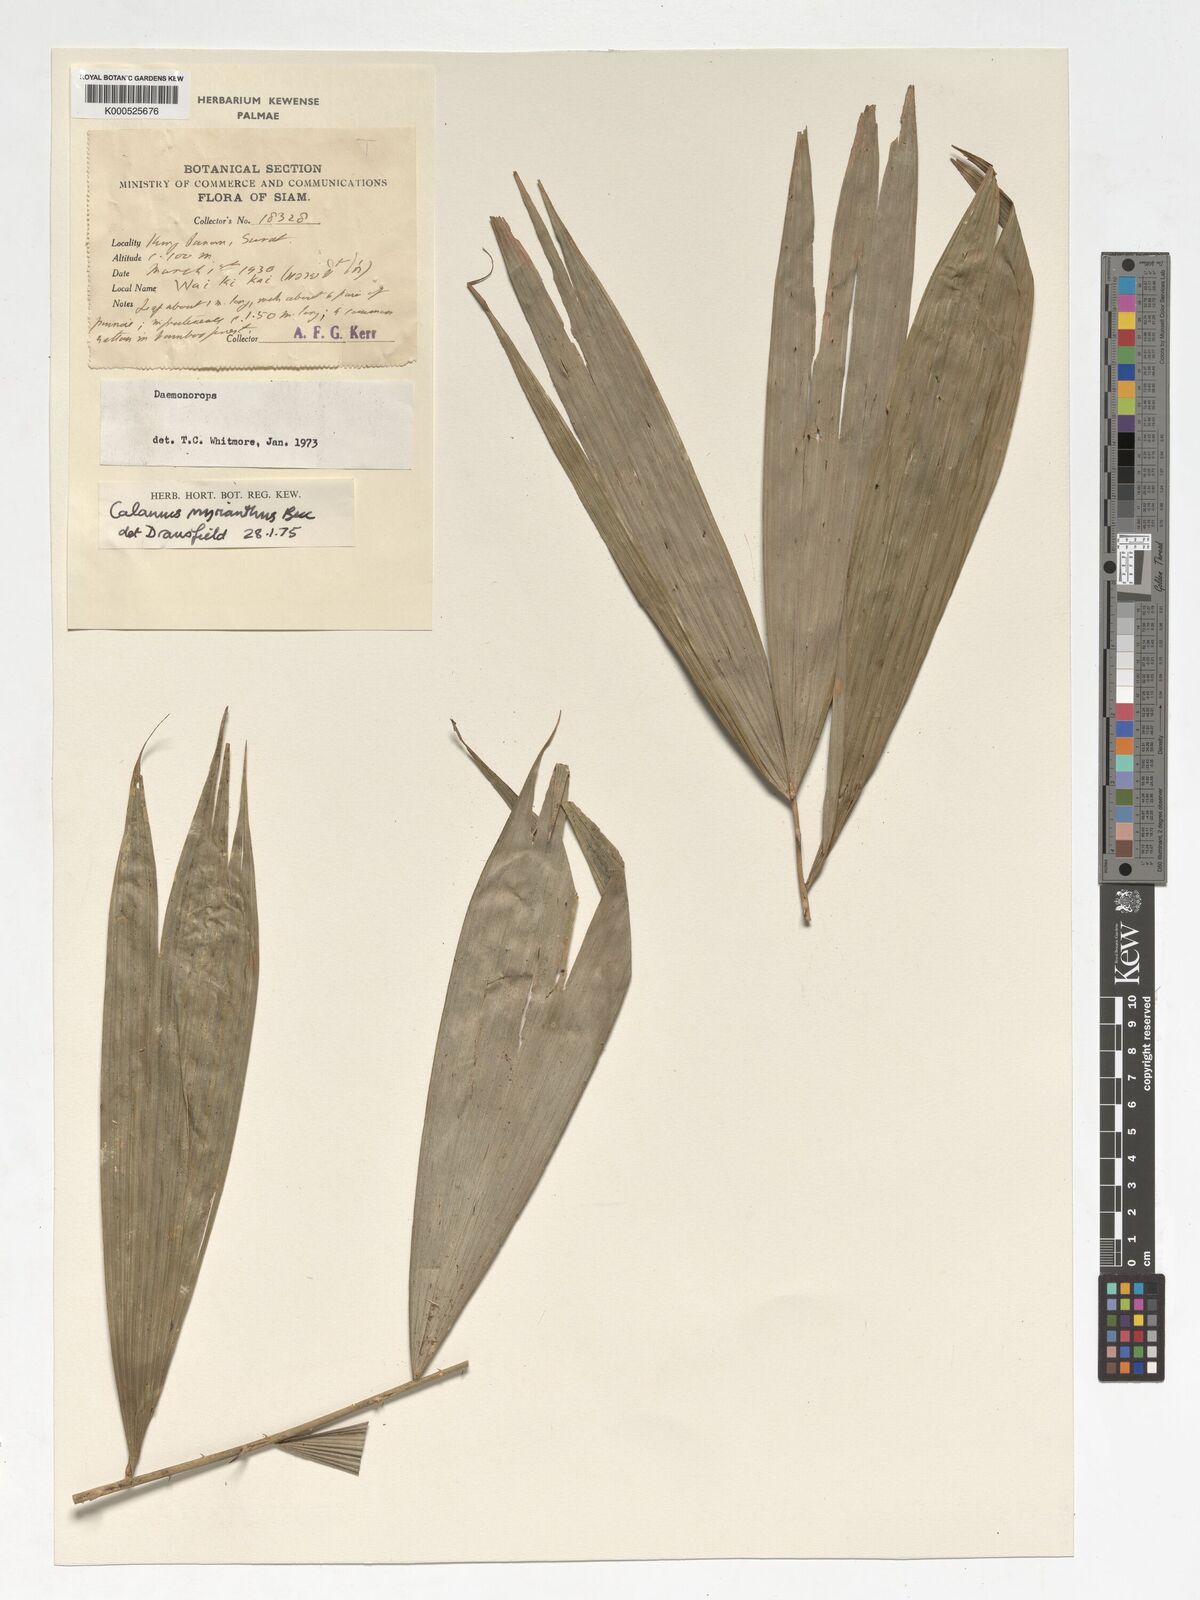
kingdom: Plantae
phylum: Tracheophyta
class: Liliopsida
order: Arecales
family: Arecaceae
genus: Calamus
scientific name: Calamus myrianthus
